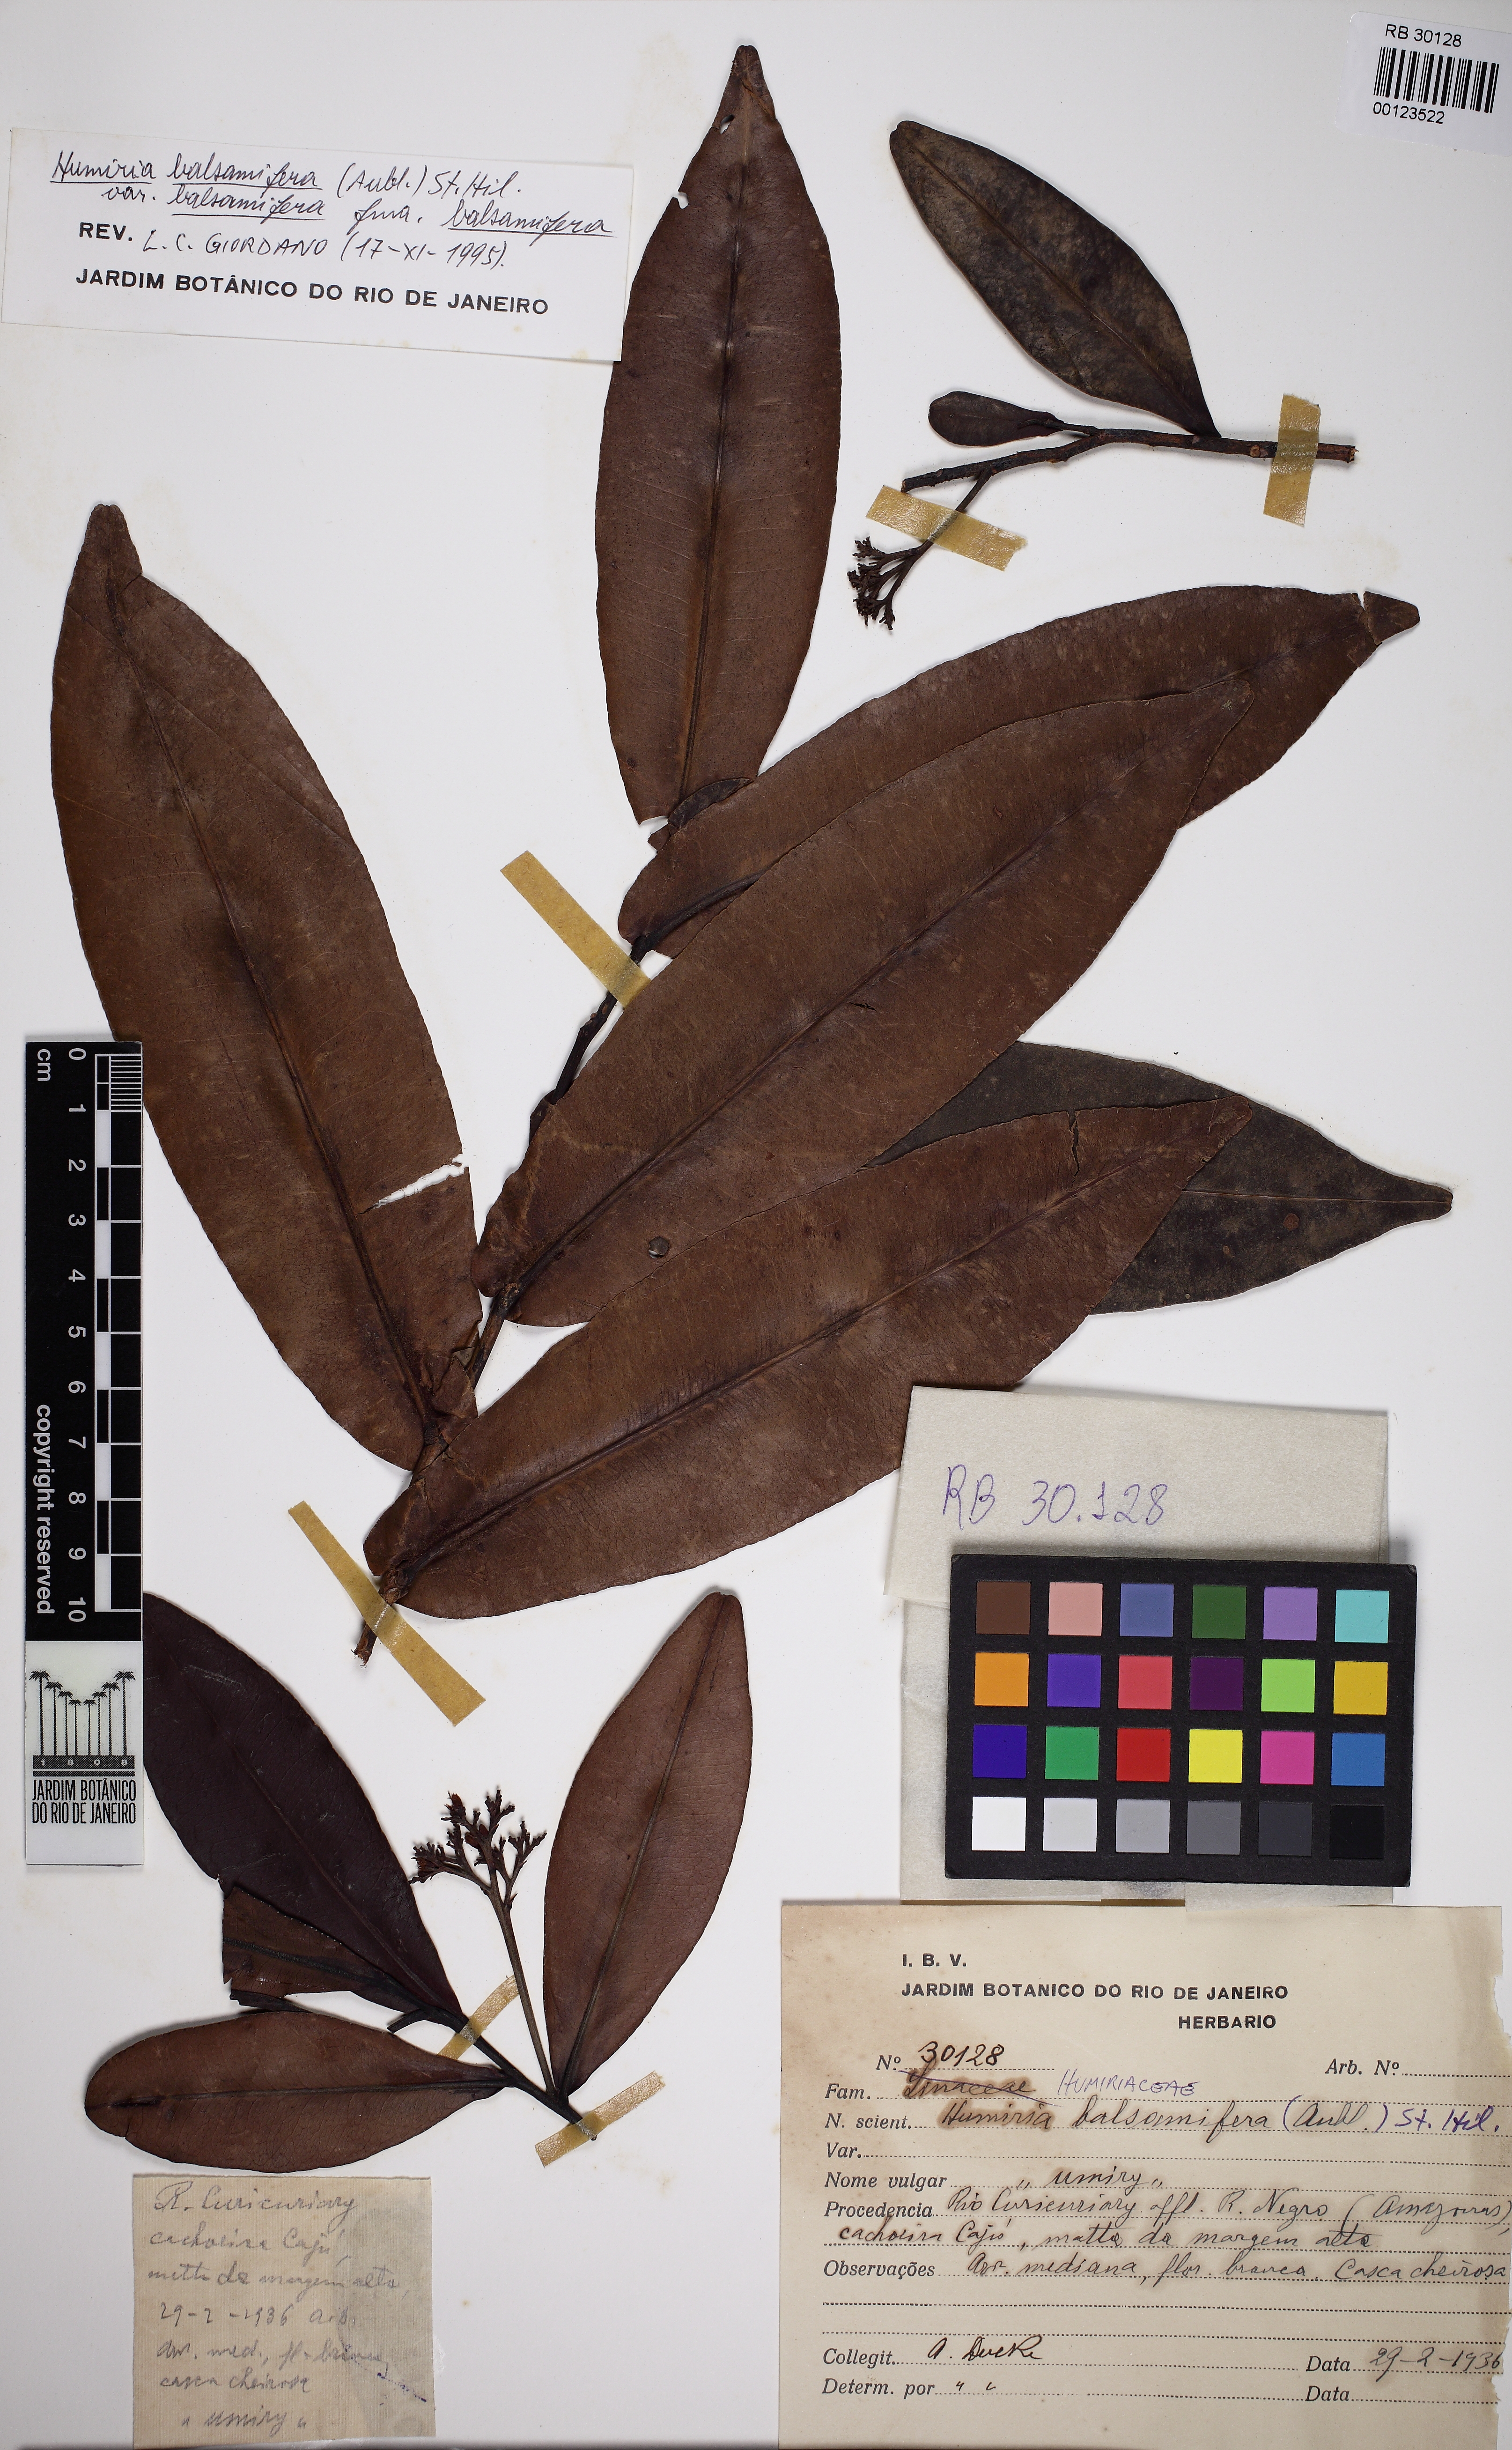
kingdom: Plantae
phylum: Tracheophyta
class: Magnoliopsida
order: Malpighiales
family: Humiriaceae
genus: Humiria
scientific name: Humiria balsamifera
